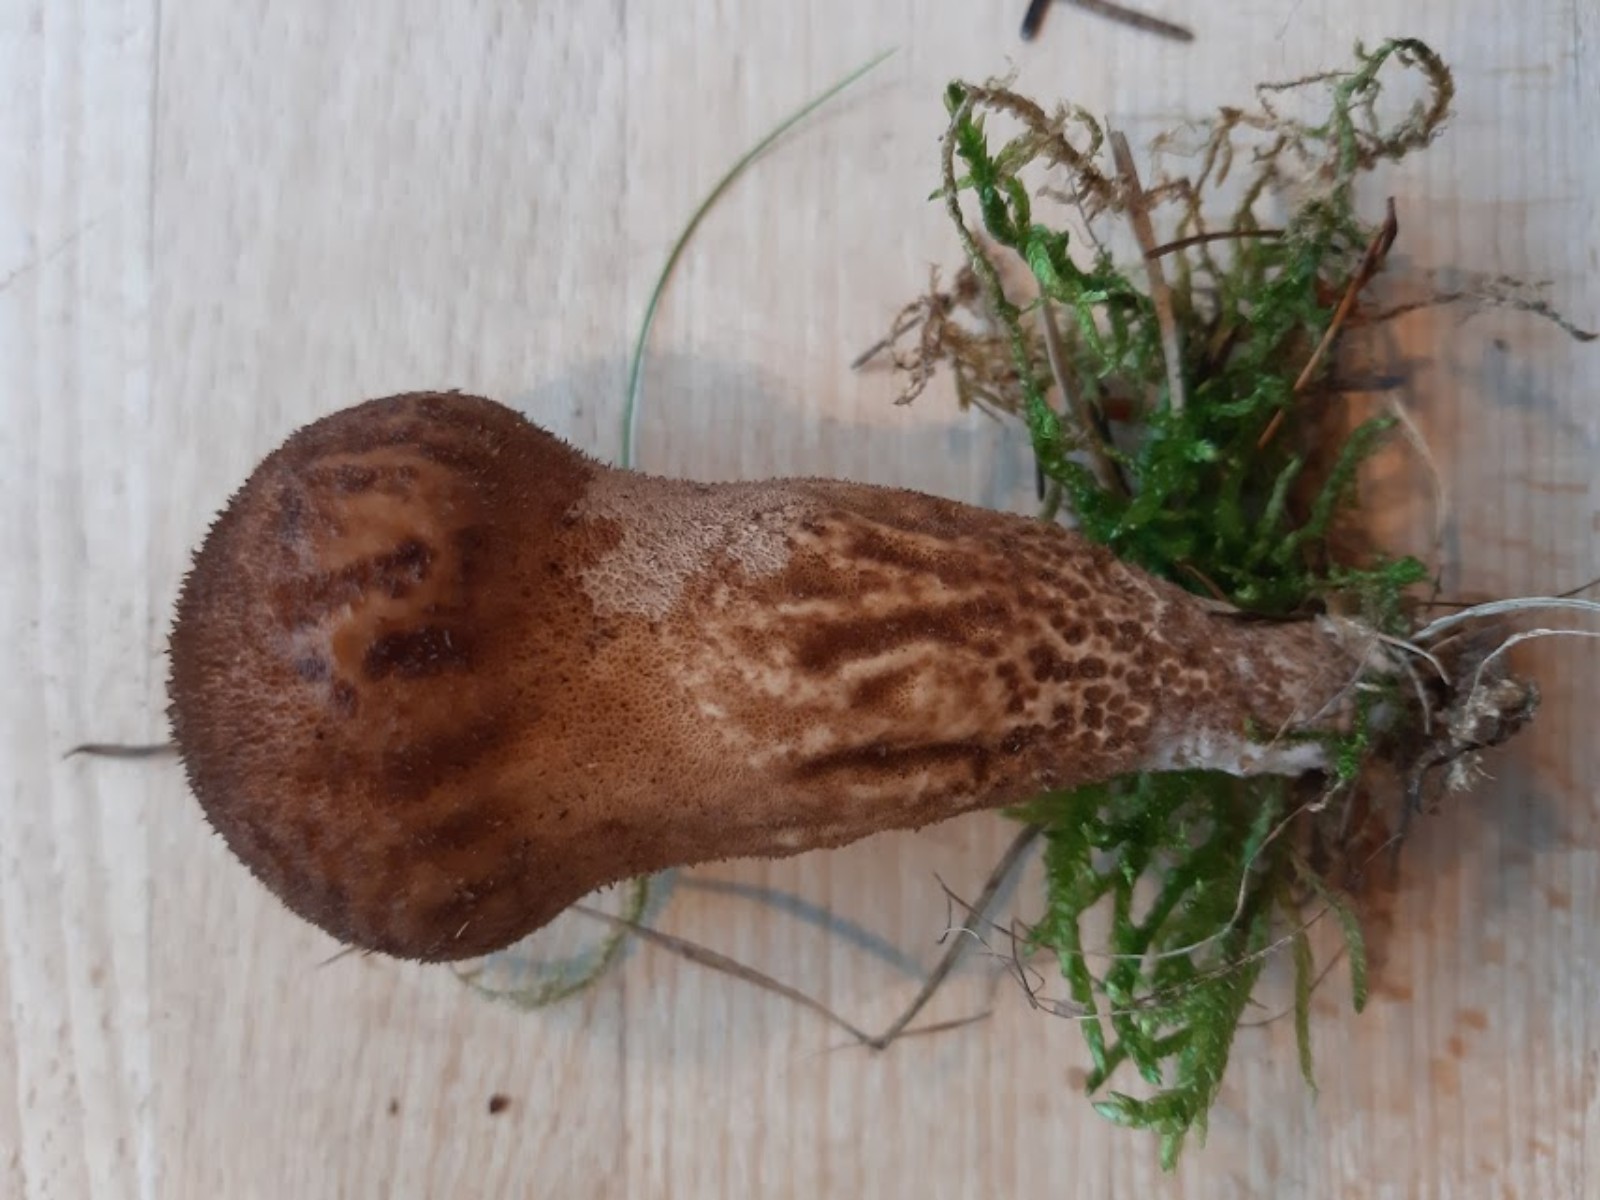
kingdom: Fungi
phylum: Basidiomycota
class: Agaricomycetes
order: Agaricales
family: Lycoperdaceae
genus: Lycoperdon
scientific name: Lycoperdon nigrescens
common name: sortagtig støvbold
